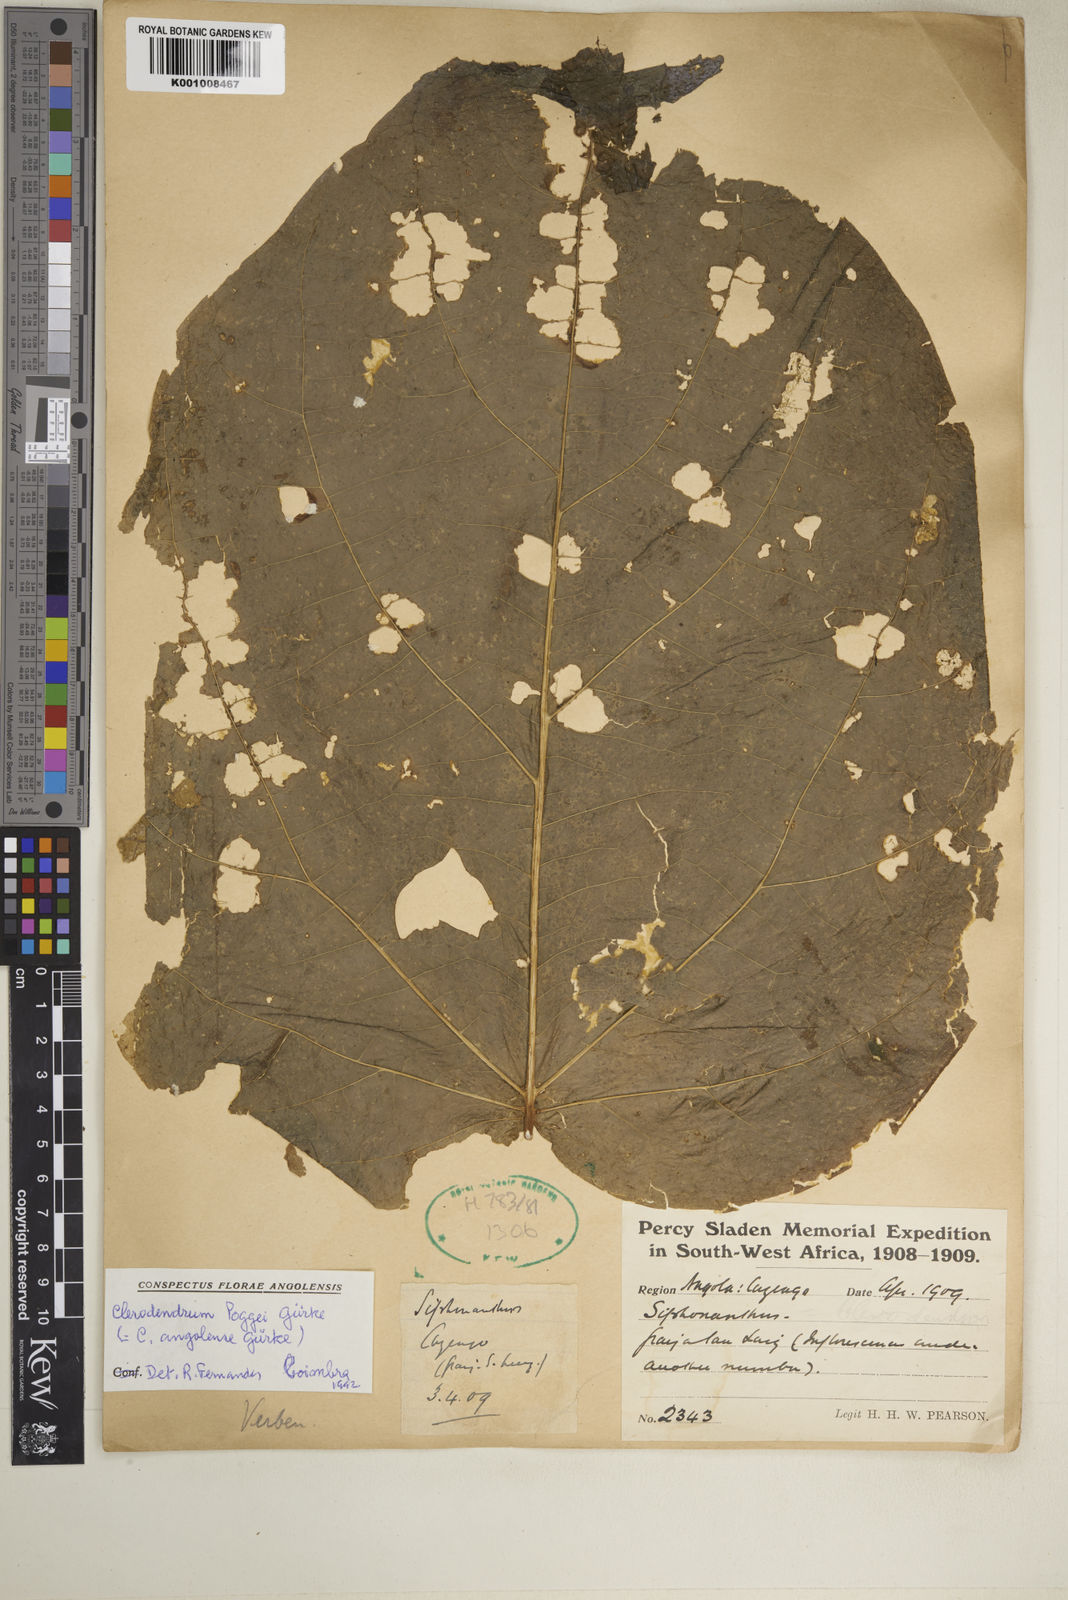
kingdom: Plantae
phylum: Tracheophyta
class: Magnoliopsida
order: Lamiales
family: Lamiaceae
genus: Clerodendrum
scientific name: Clerodendrum
